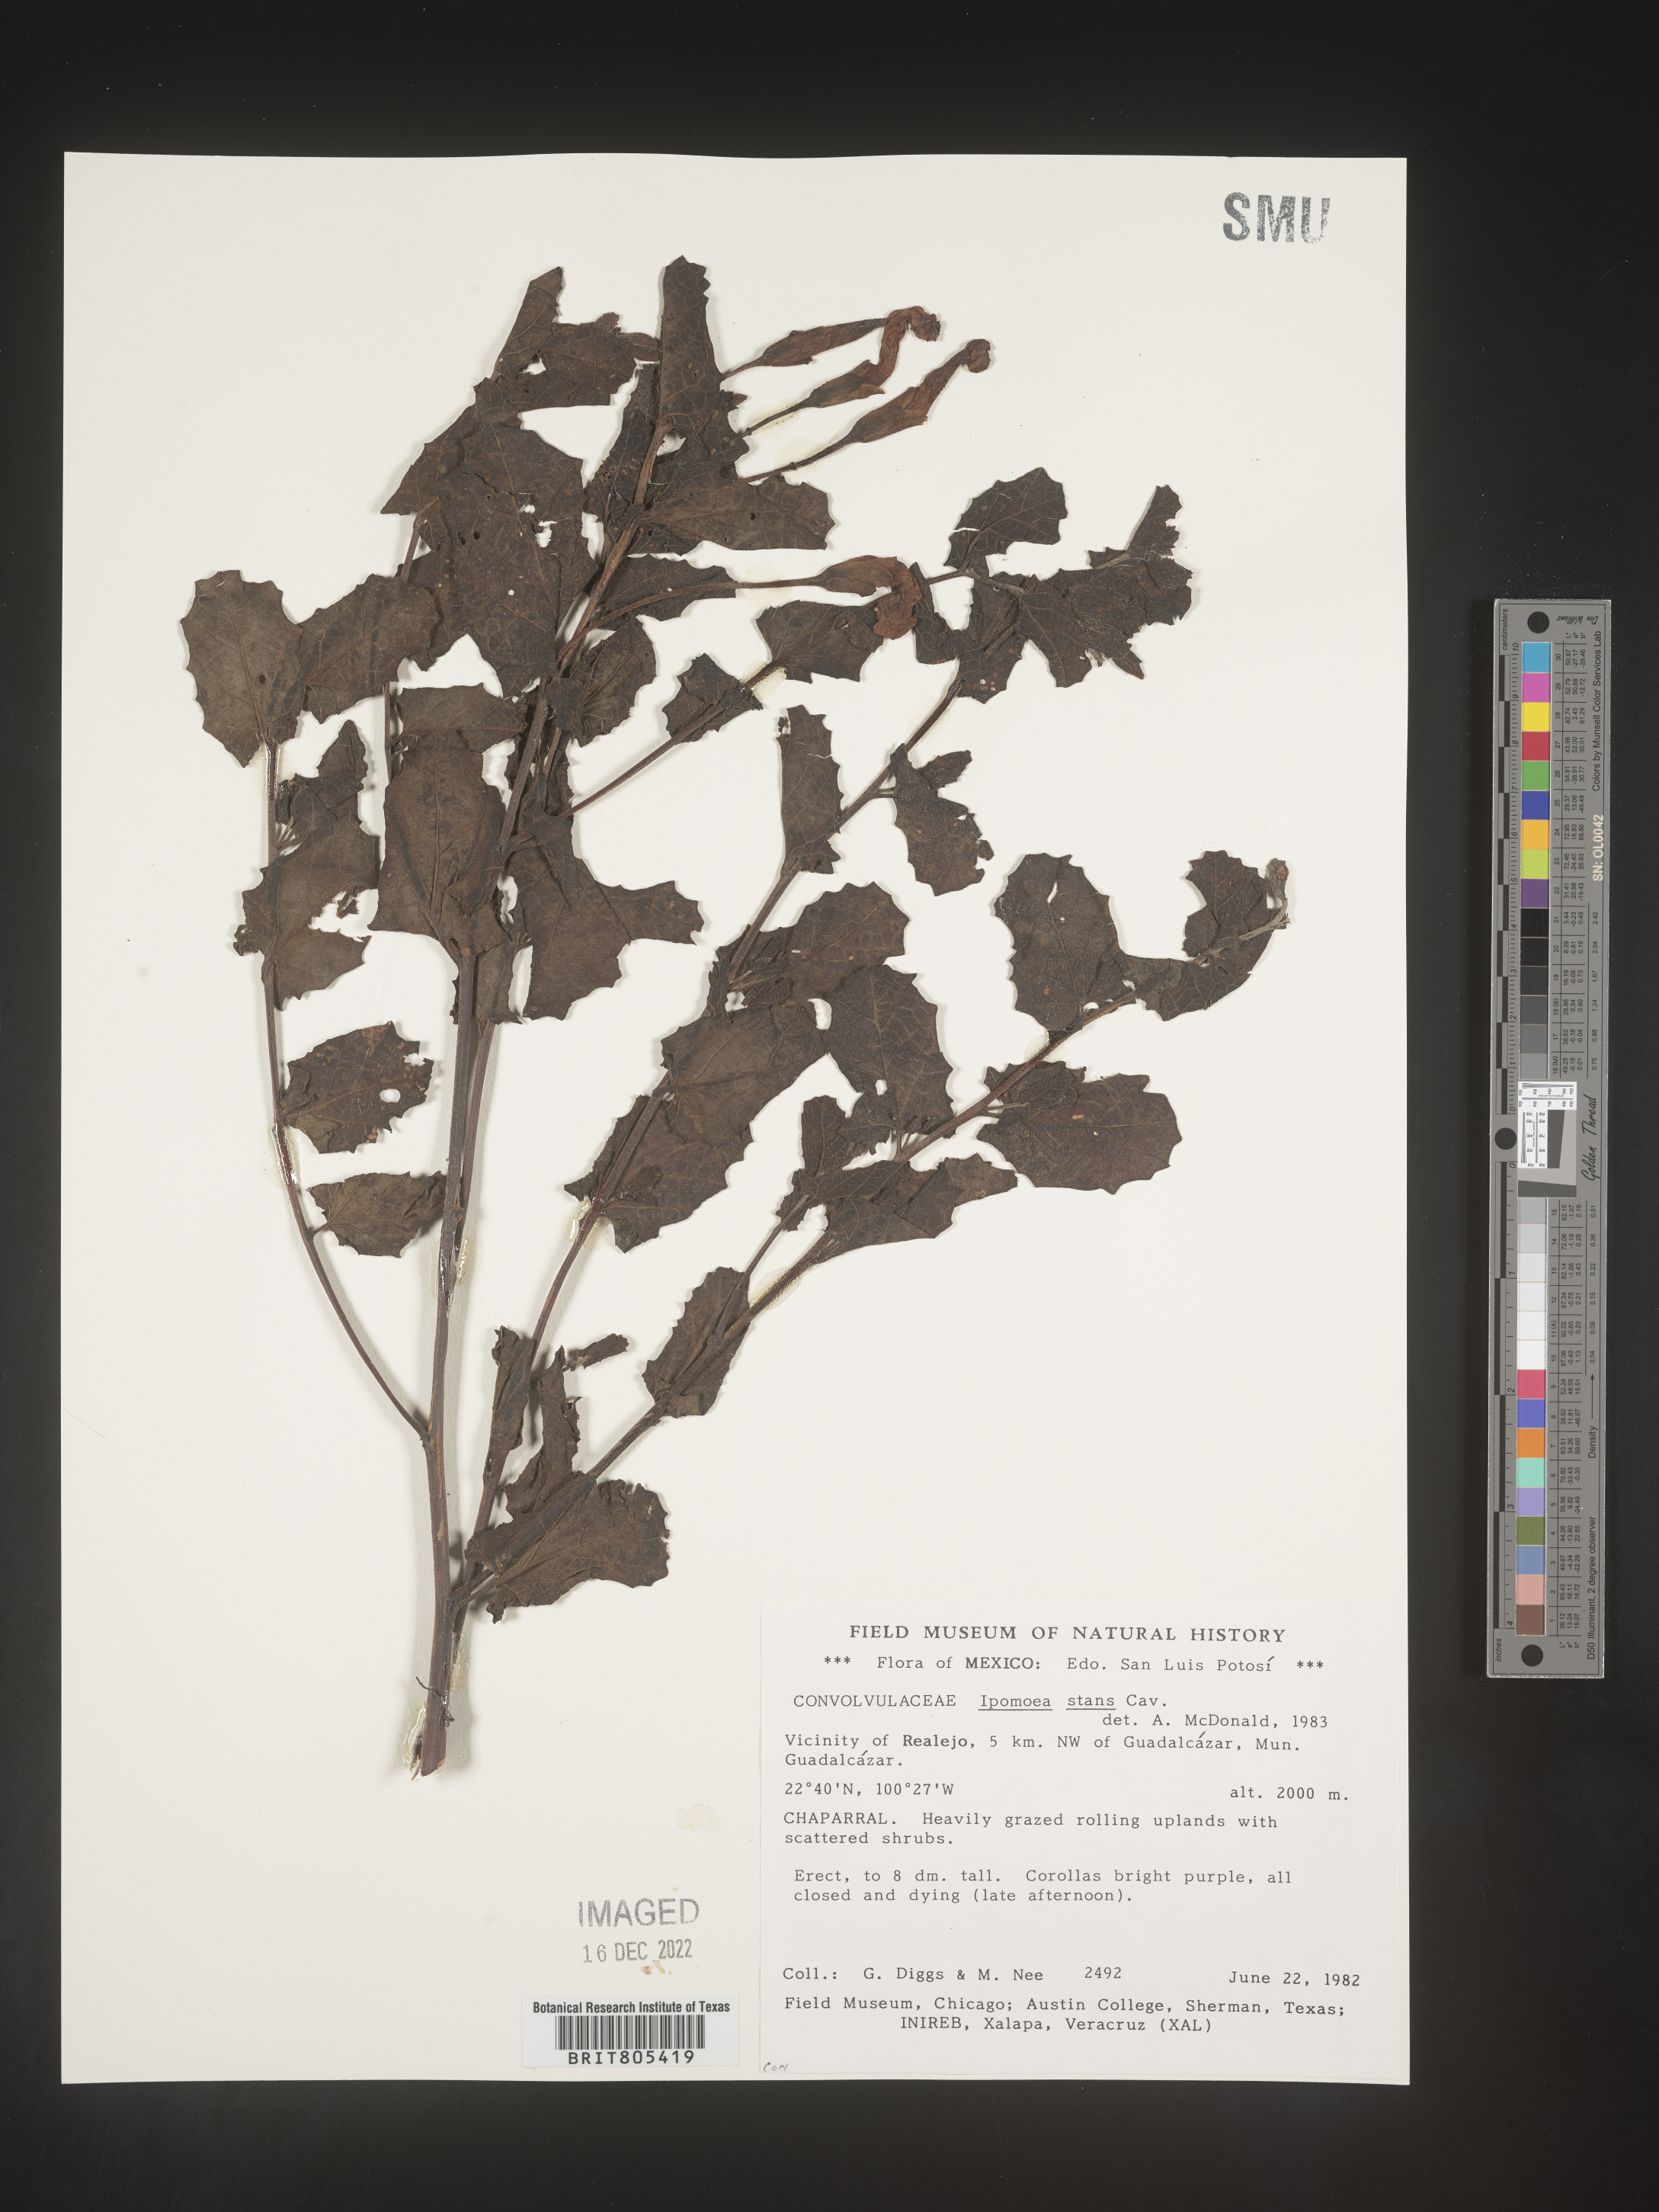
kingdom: Plantae
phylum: Tracheophyta
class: Magnoliopsida
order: Solanales
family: Convolvulaceae
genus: Ipomoea
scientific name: Ipomoea
